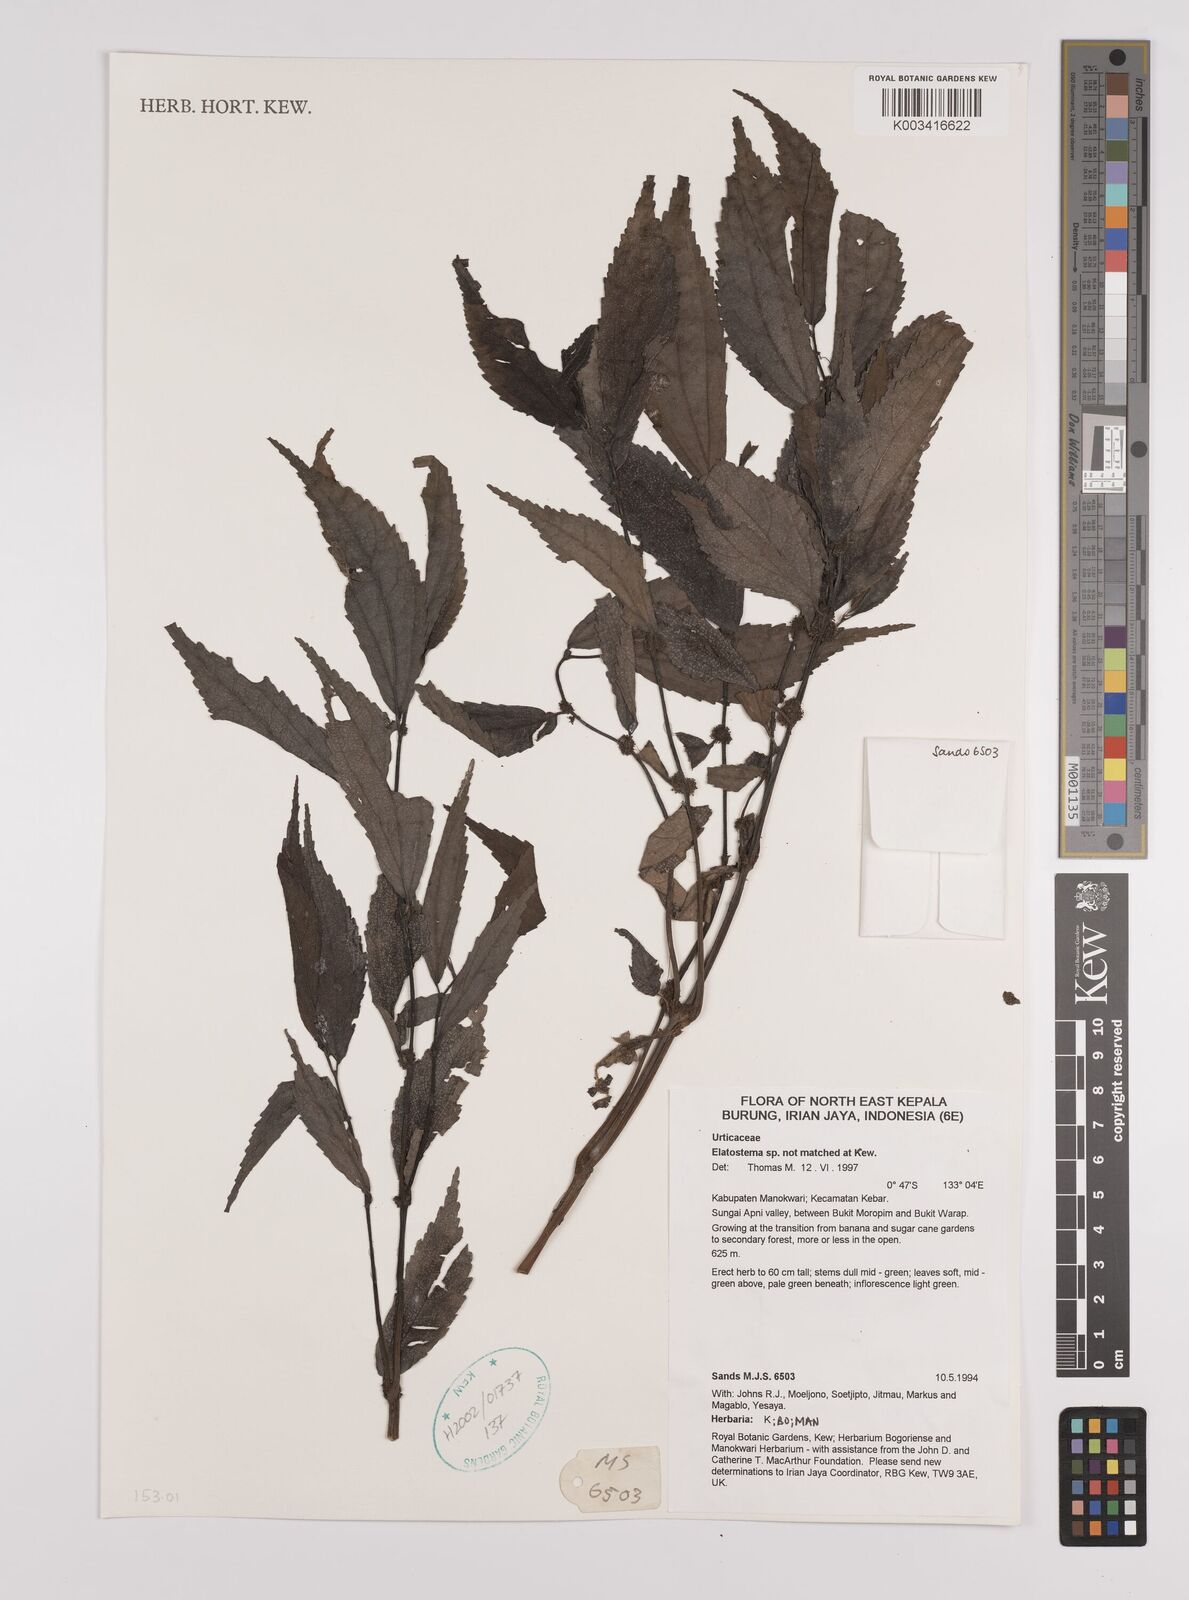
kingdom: Plantae
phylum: Tracheophyta
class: Magnoliopsida
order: Rosales
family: Urticaceae
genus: Elatostema
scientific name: Elatostema
